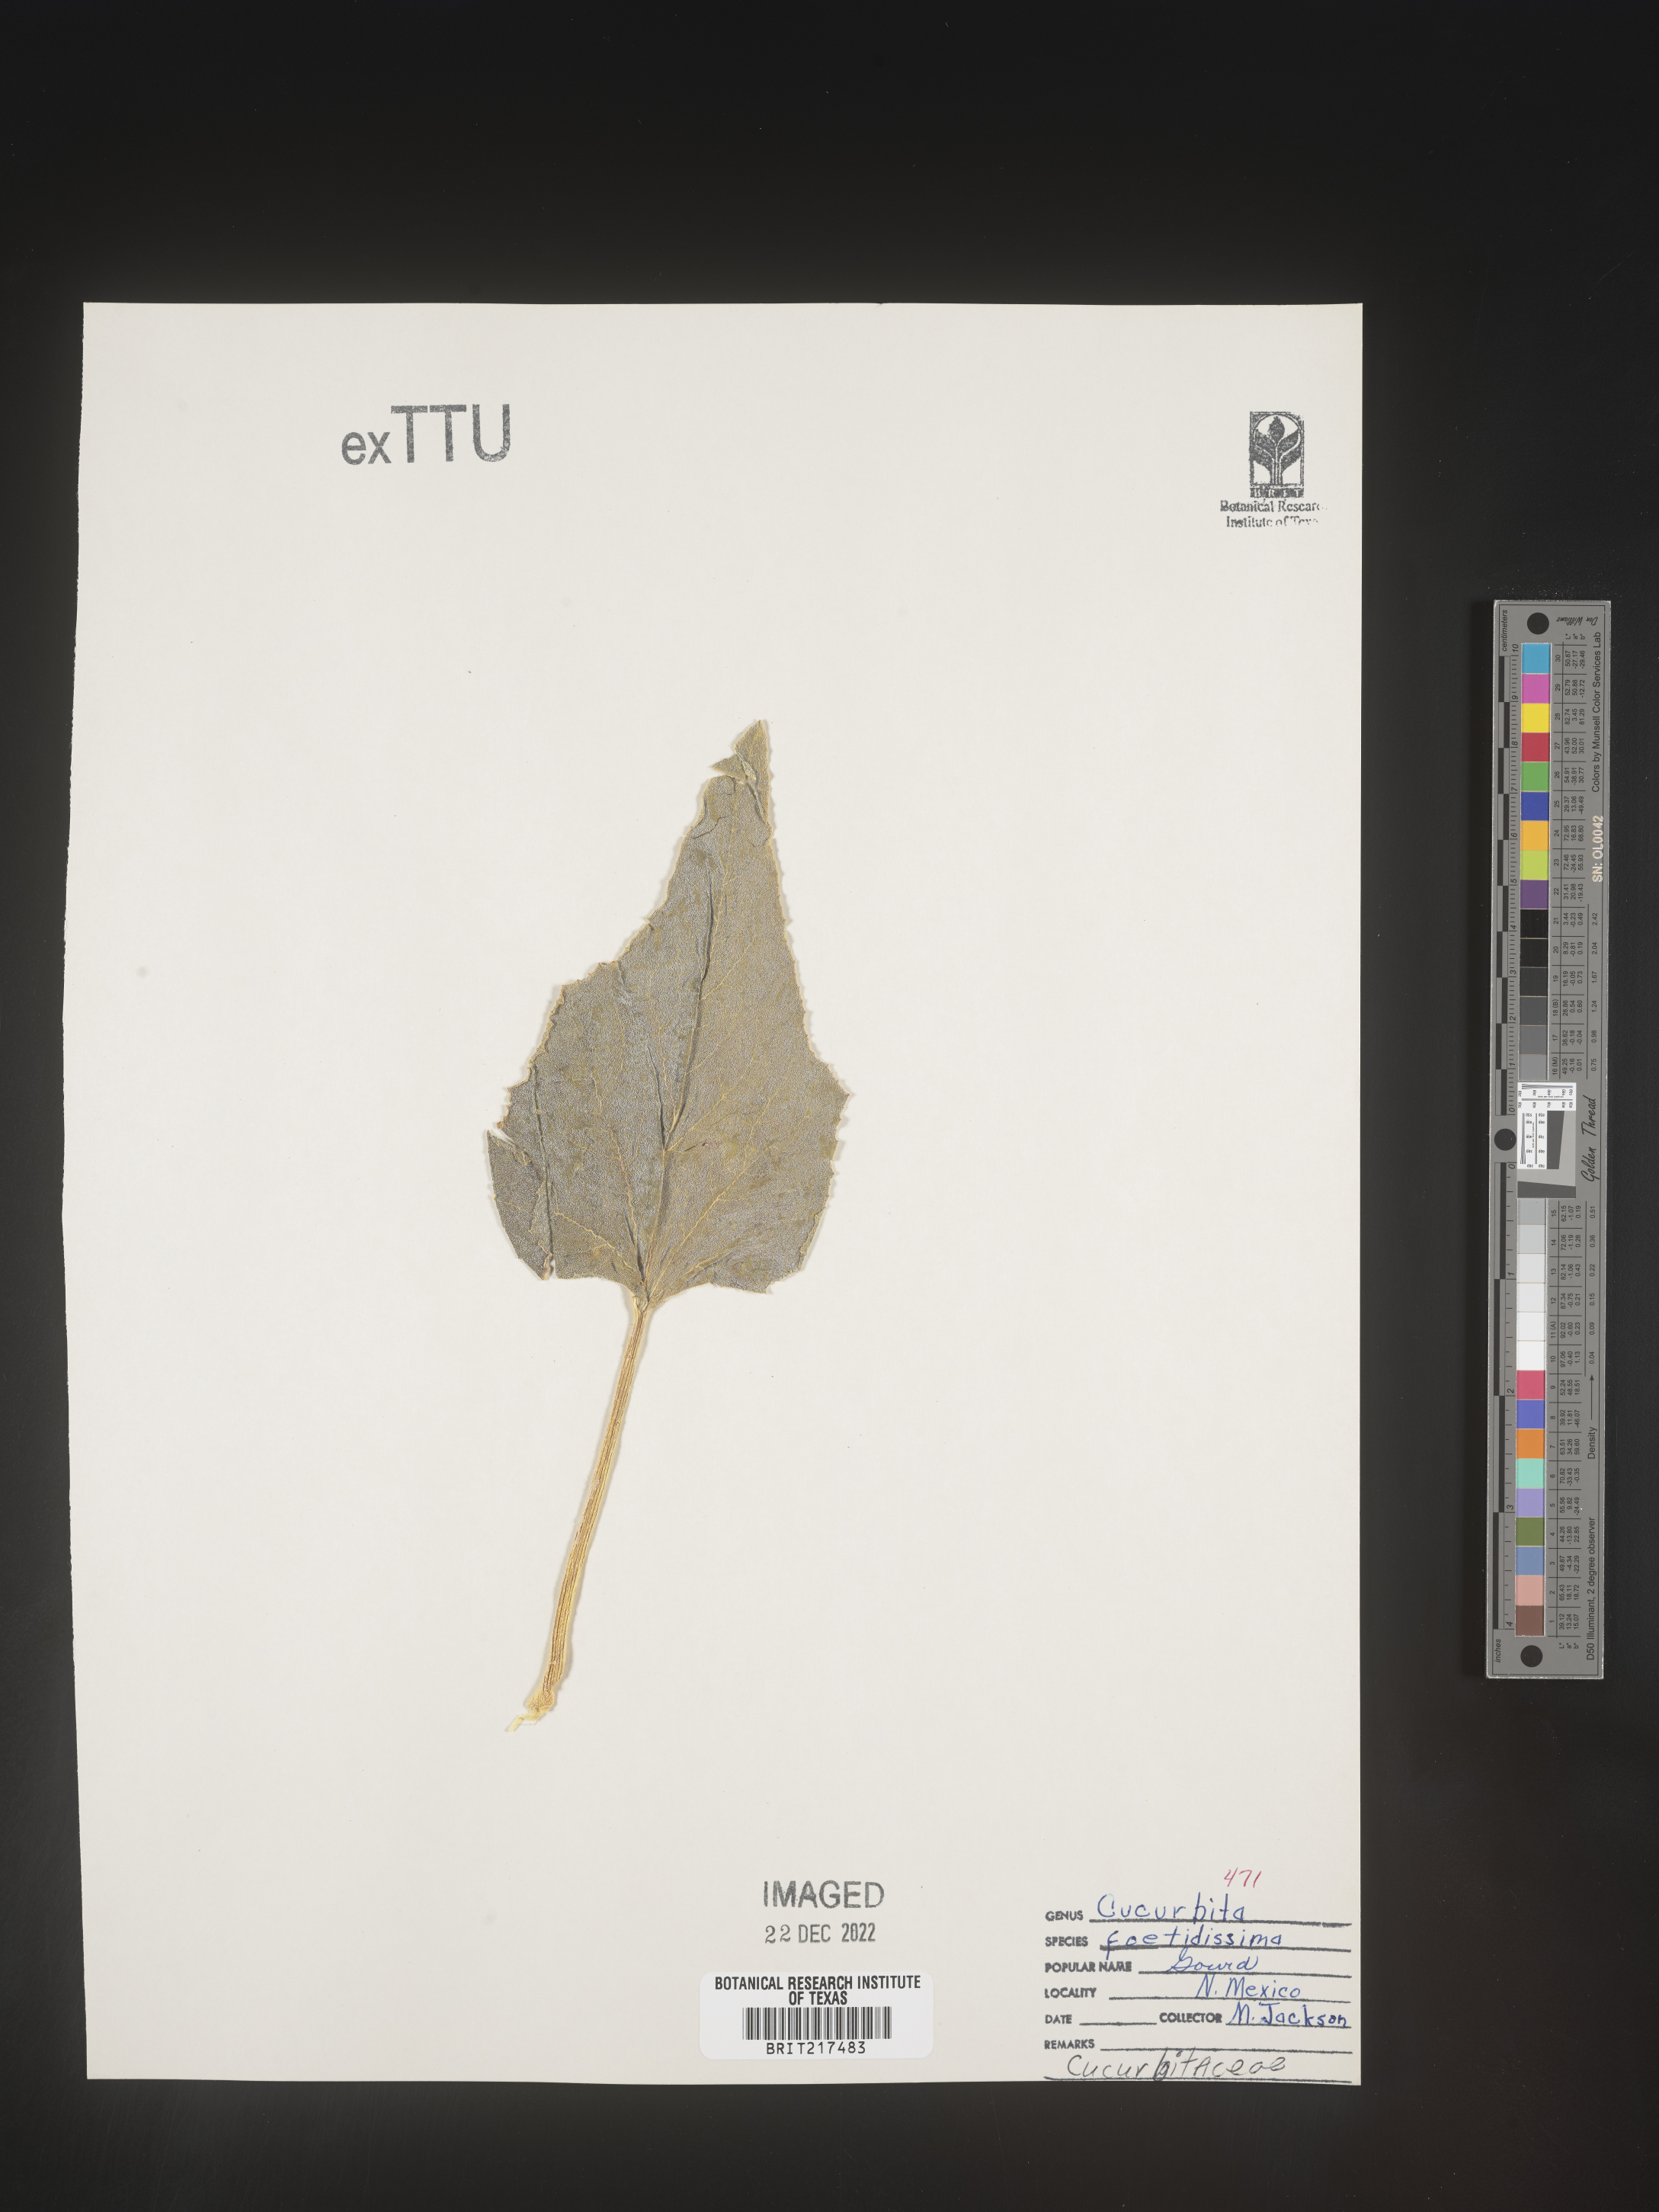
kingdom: Plantae
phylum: Tracheophyta
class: Magnoliopsida
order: Cucurbitales
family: Cucurbitaceae
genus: Cucurbita
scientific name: Cucurbita foetidissima
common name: Buffalo gourd
